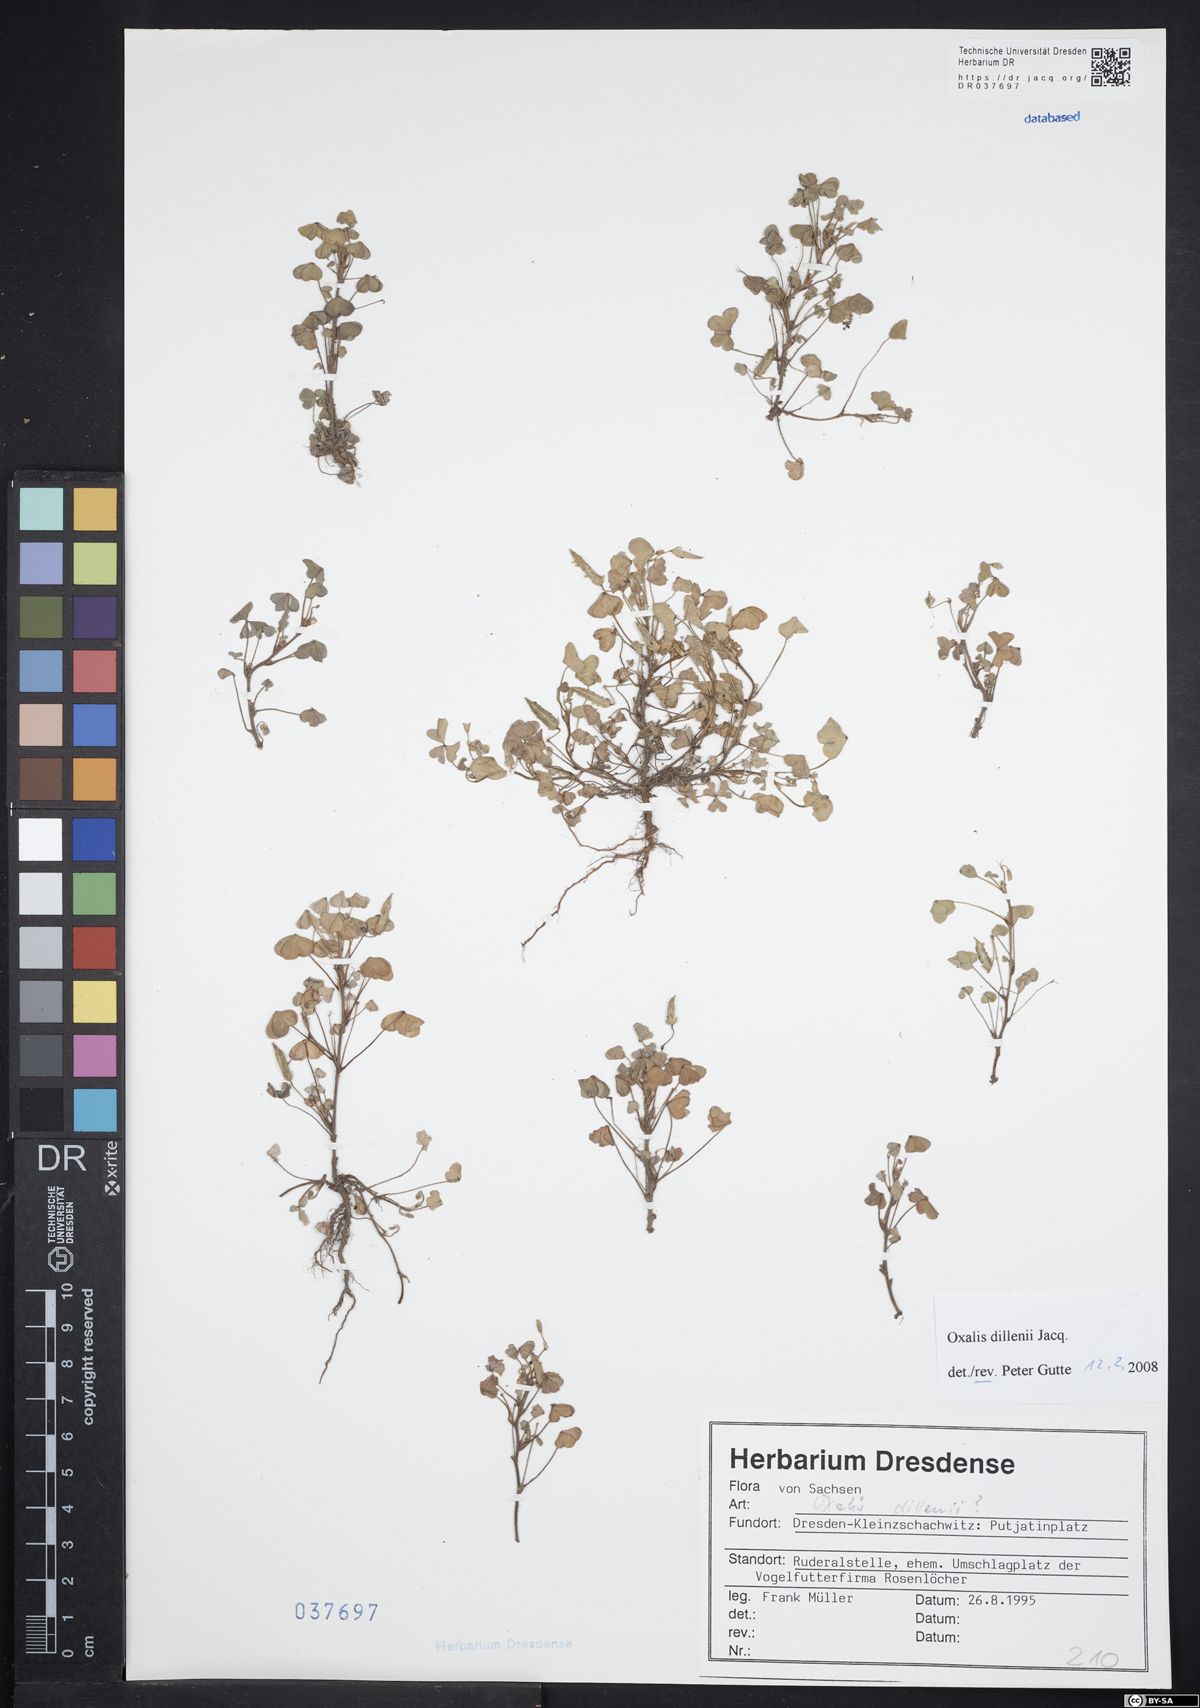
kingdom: Plantae
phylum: Tracheophyta
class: Magnoliopsida
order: Oxalidales
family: Oxalidaceae
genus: Oxalis
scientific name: Oxalis dillenii
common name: Sussex yellow-sorrel
